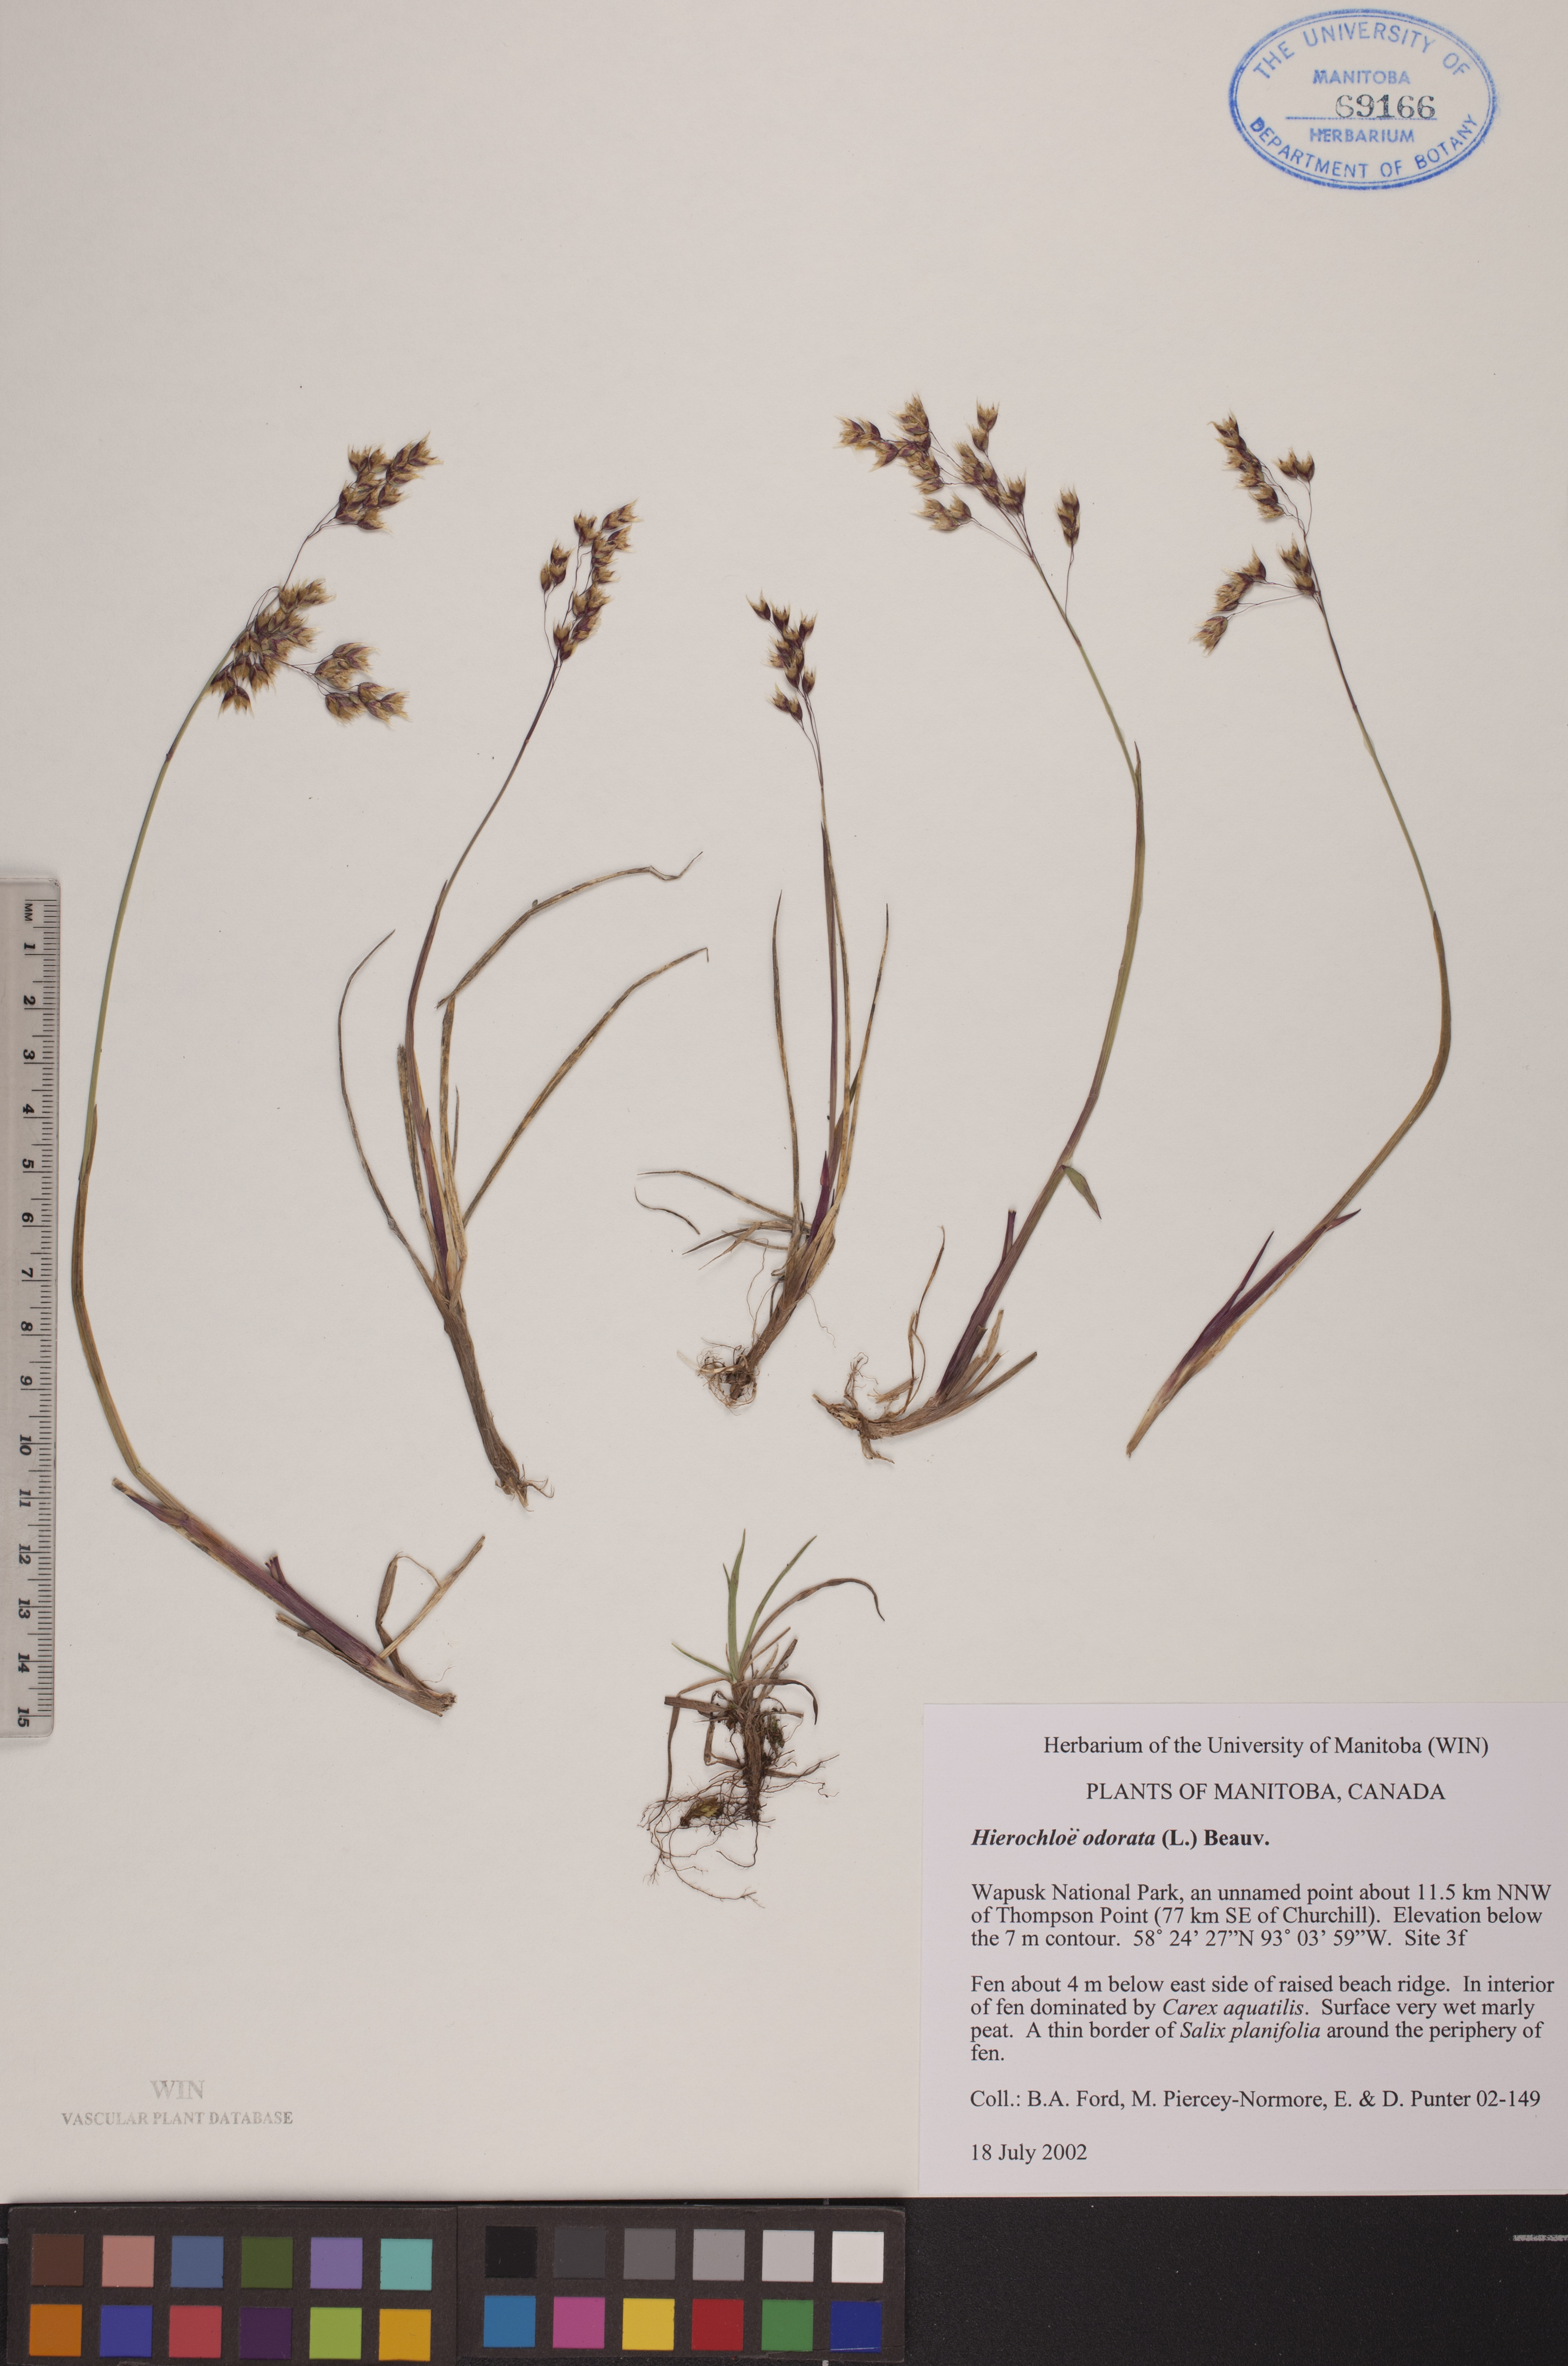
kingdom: Plantae
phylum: Tracheophyta
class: Liliopsida
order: Poales
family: Poaceae
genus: Anthoxanthum
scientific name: Anthoxanthum nitens
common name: Holy grass
